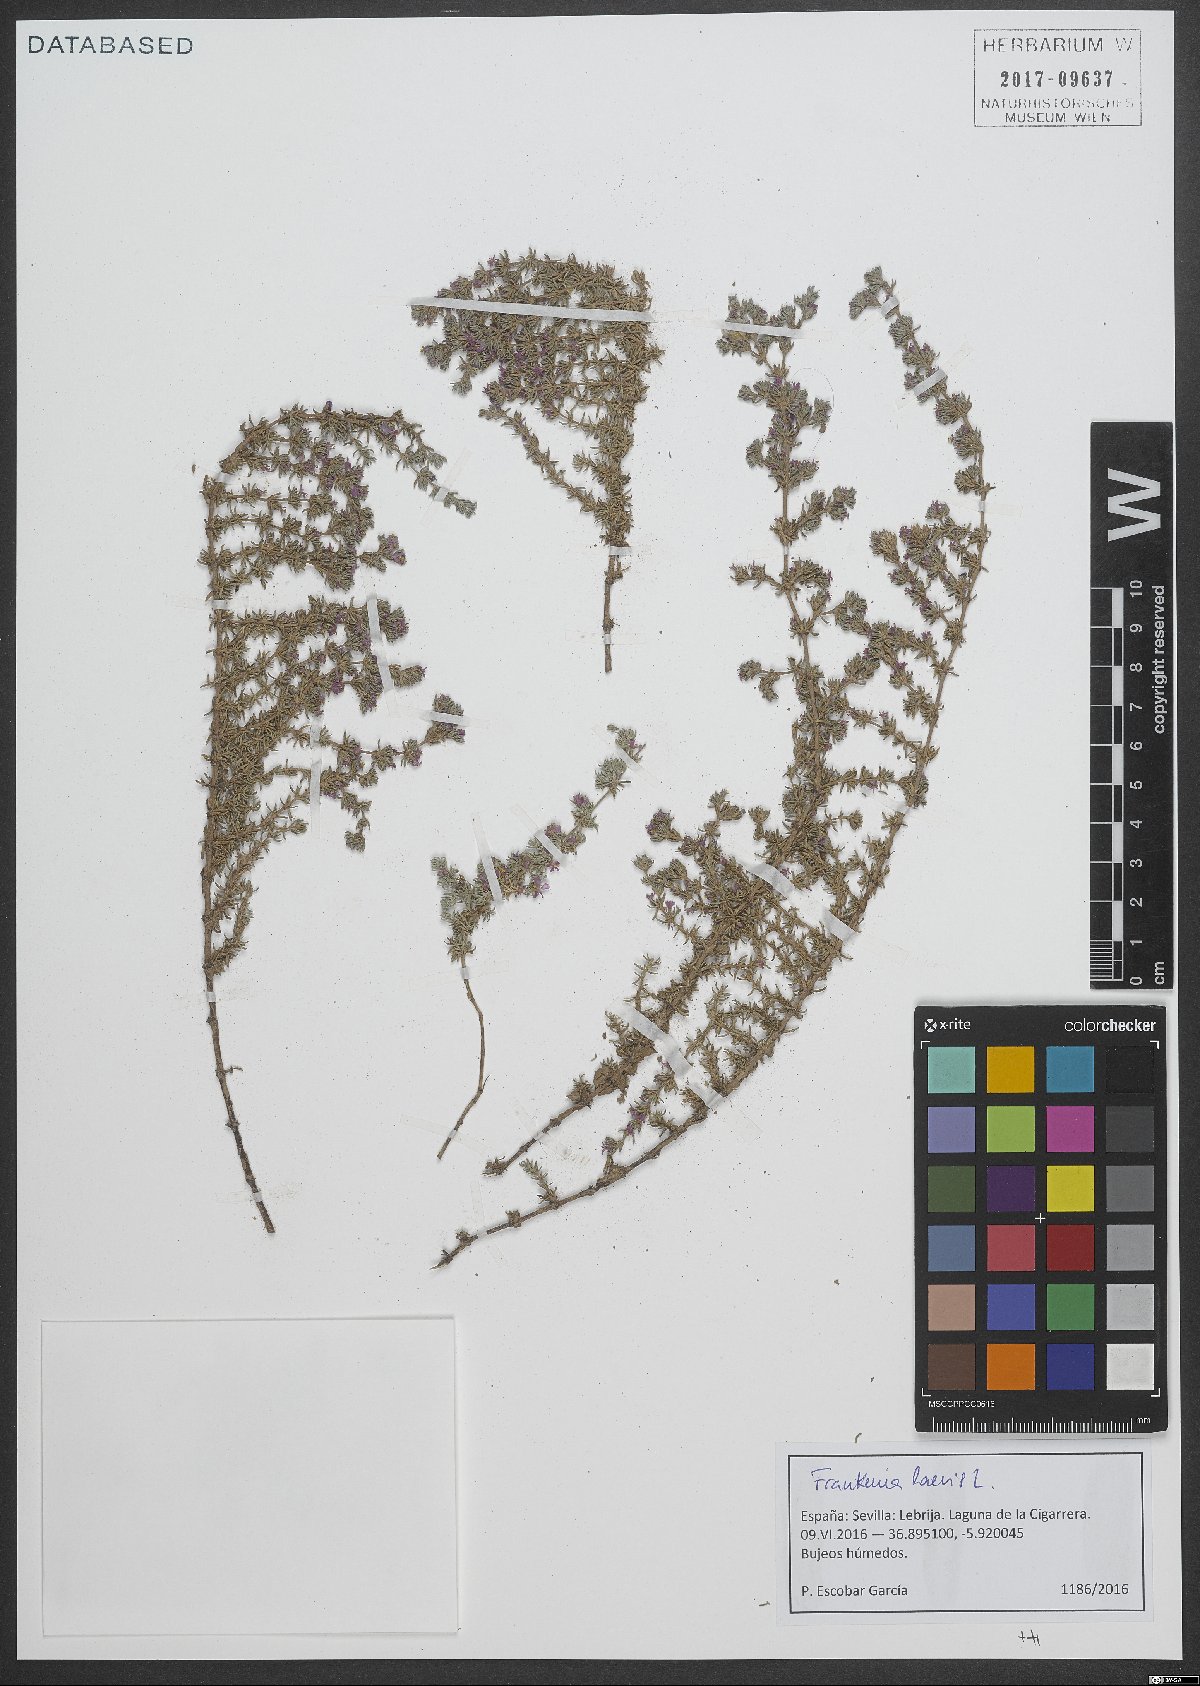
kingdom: Plantae
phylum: Tracheophyta
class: Magnoliopsida
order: Caryophyllales
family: Frankeniaceae
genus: Frankenia
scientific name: Frankenia laevis
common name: Sea-heath
